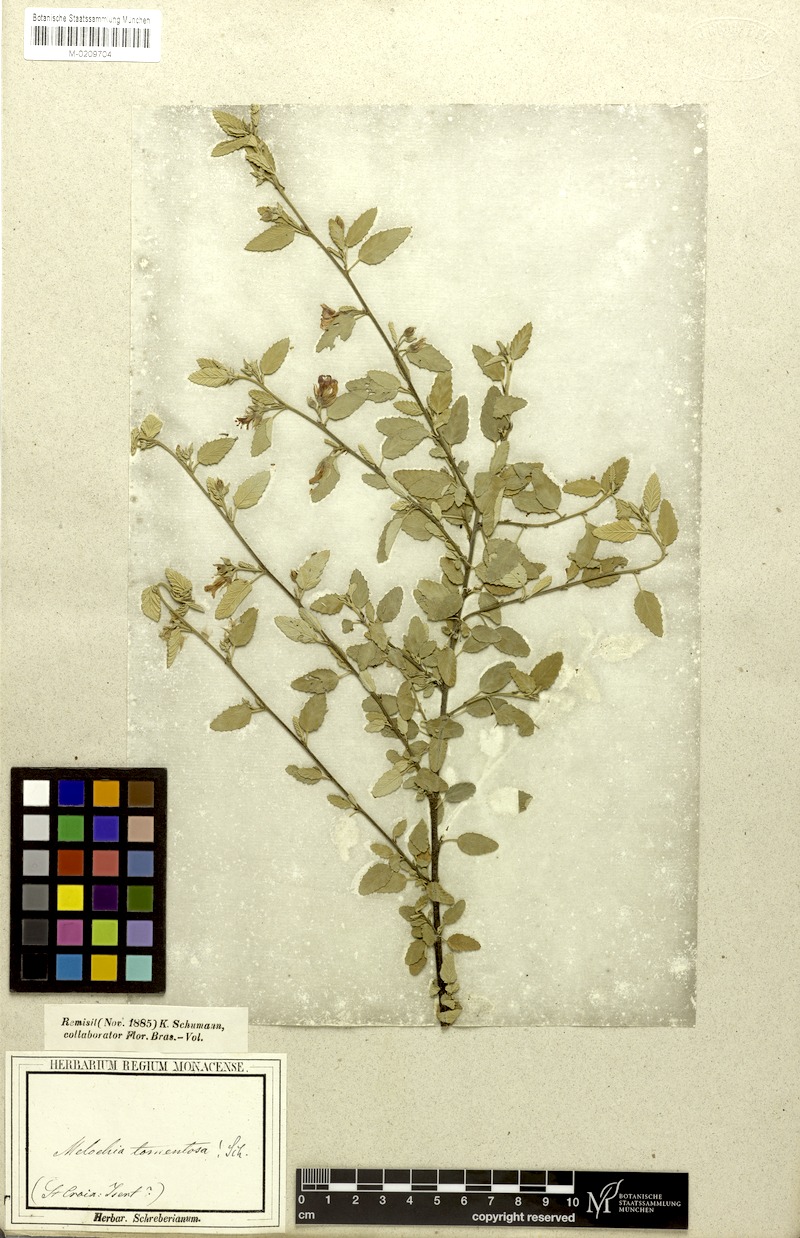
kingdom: Plantae
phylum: Tracheophyta
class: Magnoliopsida
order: Malvales
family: Malvaceae
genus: Melochia
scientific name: Melochia tomentosa
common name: Black torch
